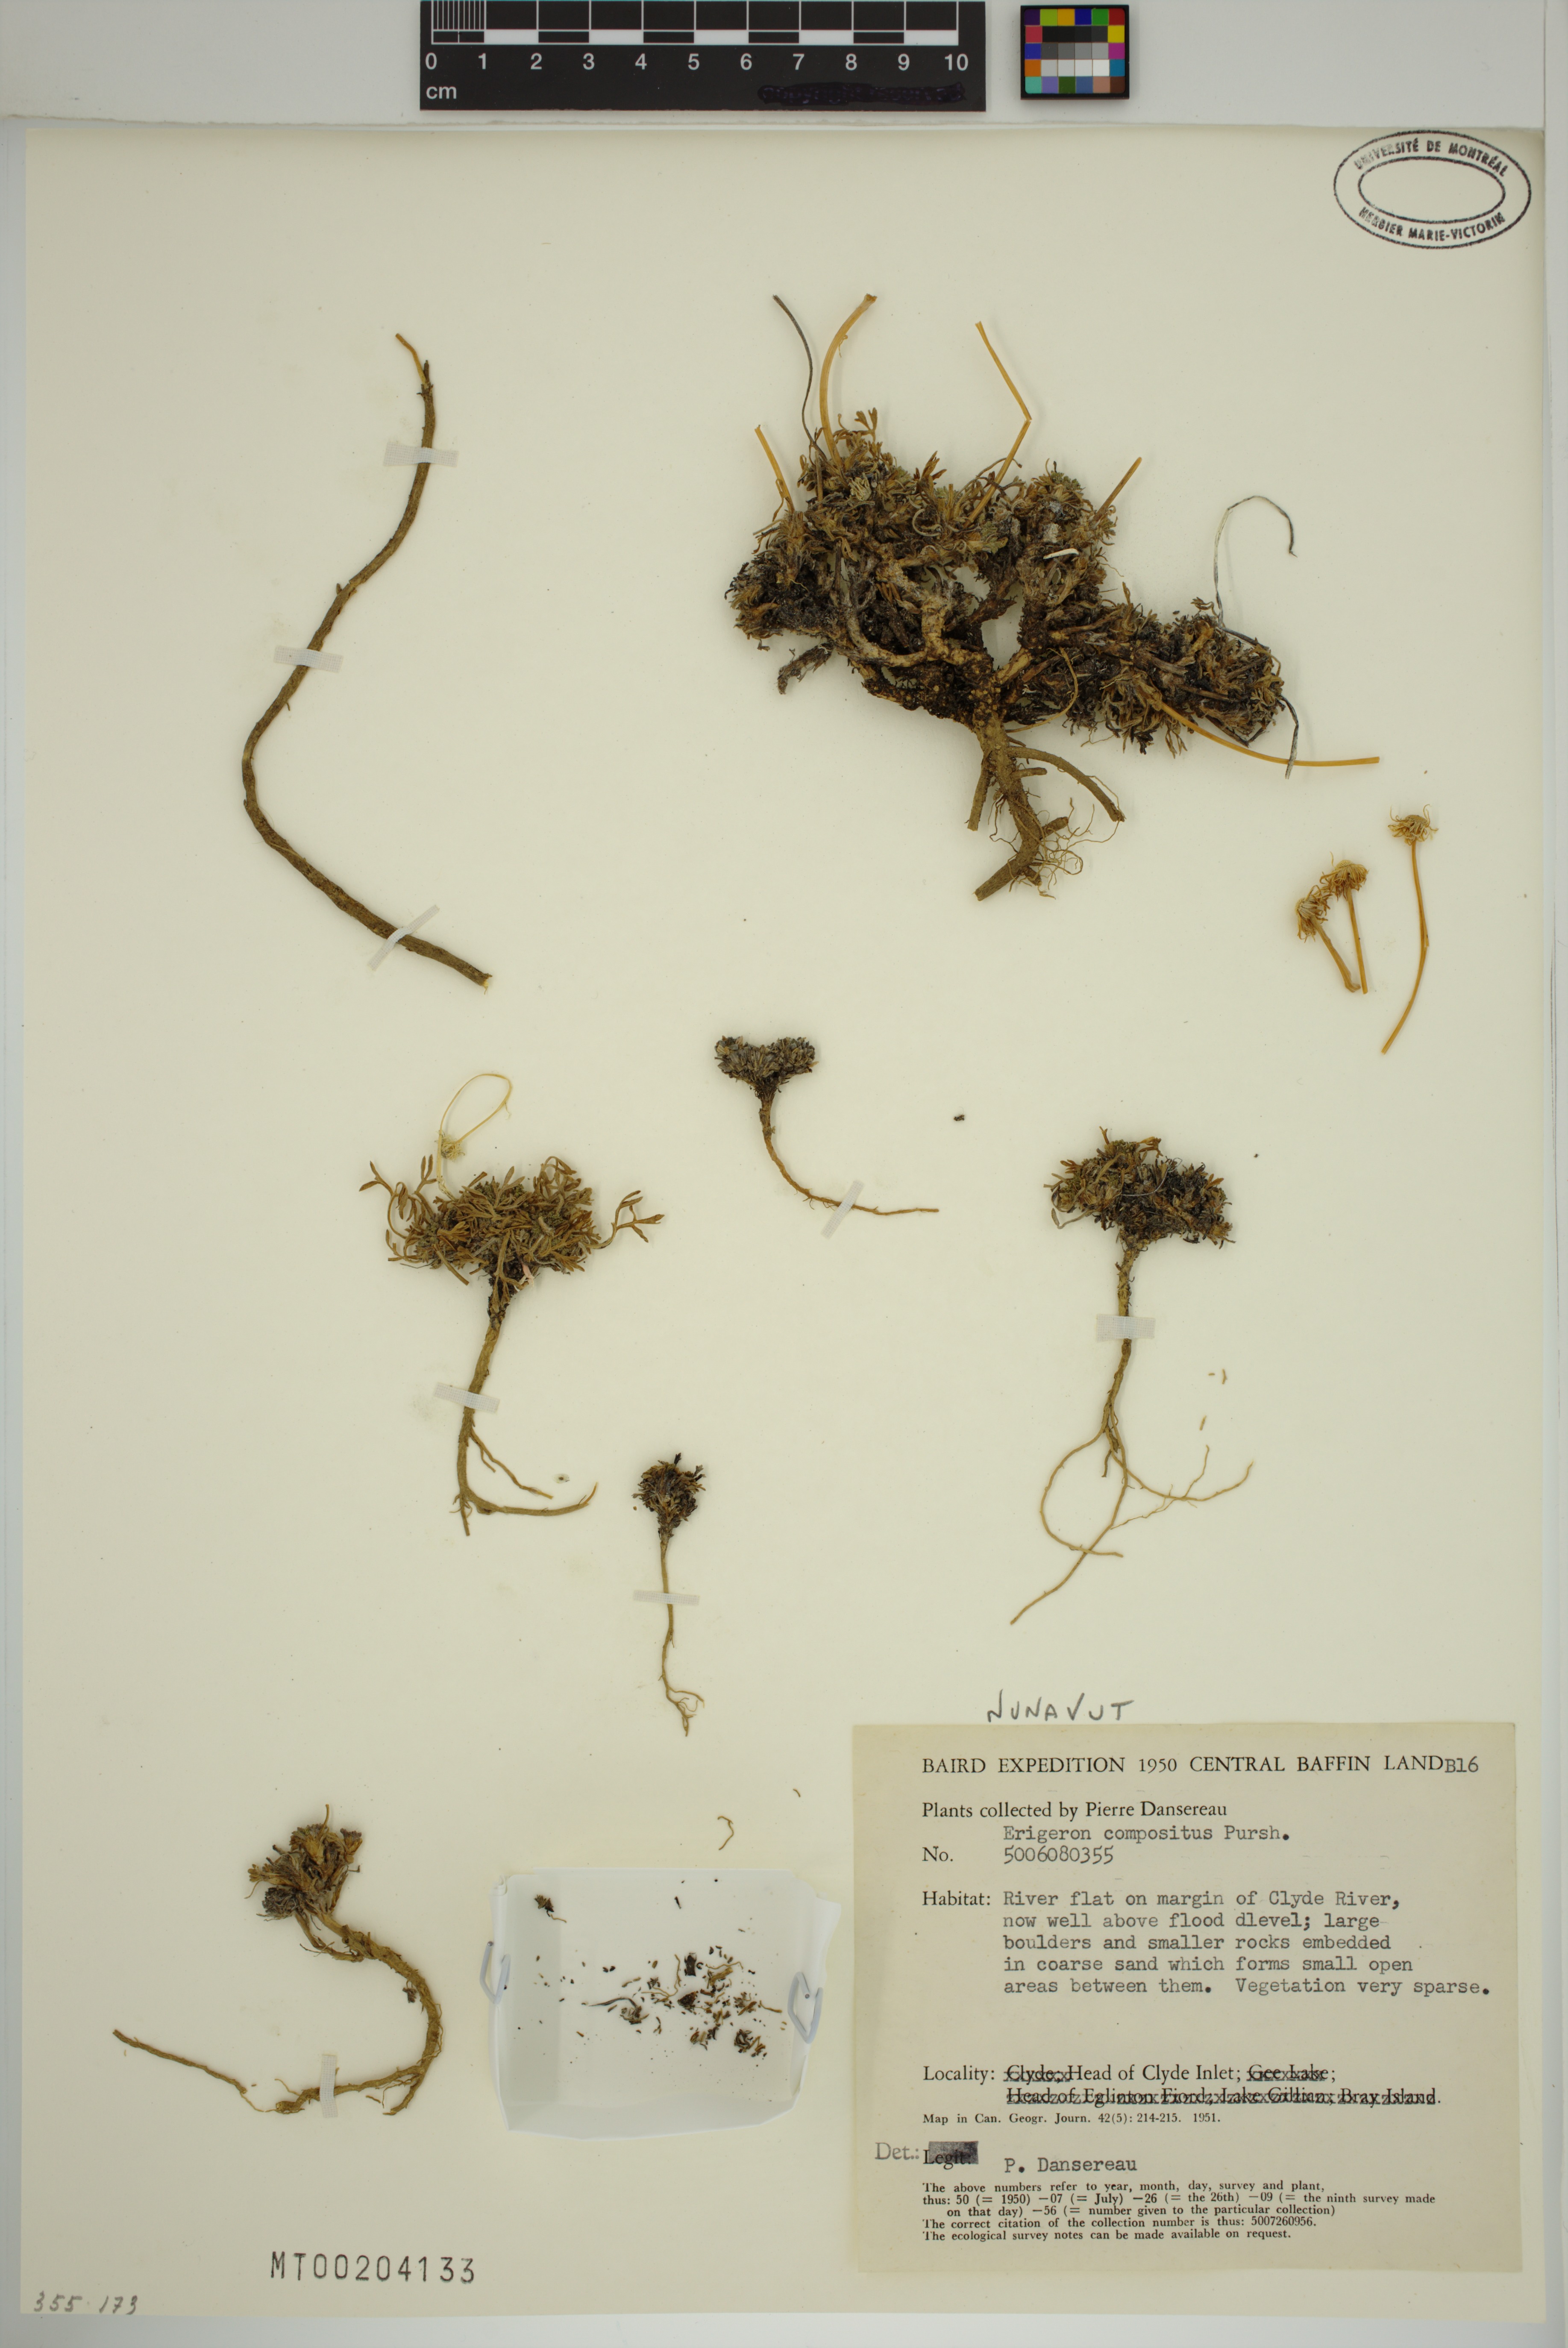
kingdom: Plantae
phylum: Tracheophyta
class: Magnoliopsida
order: Asterales
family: Asteraceae
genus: Erigeron
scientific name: Erigeron compositus
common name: Dwarf mountain fleabane
